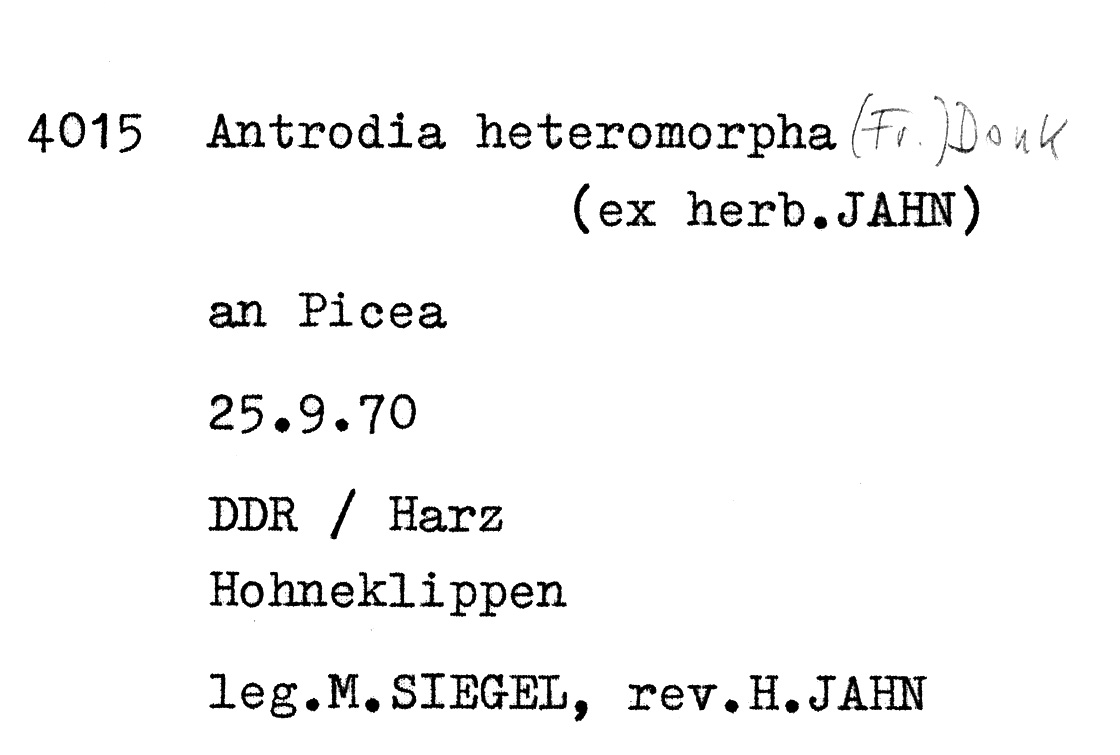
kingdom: Fungi
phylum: Basidiomycota
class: Agaricomycetes
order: Polyporales
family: Fomitopsidaceae
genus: Antrodia
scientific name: Antrodia heteromorpha
